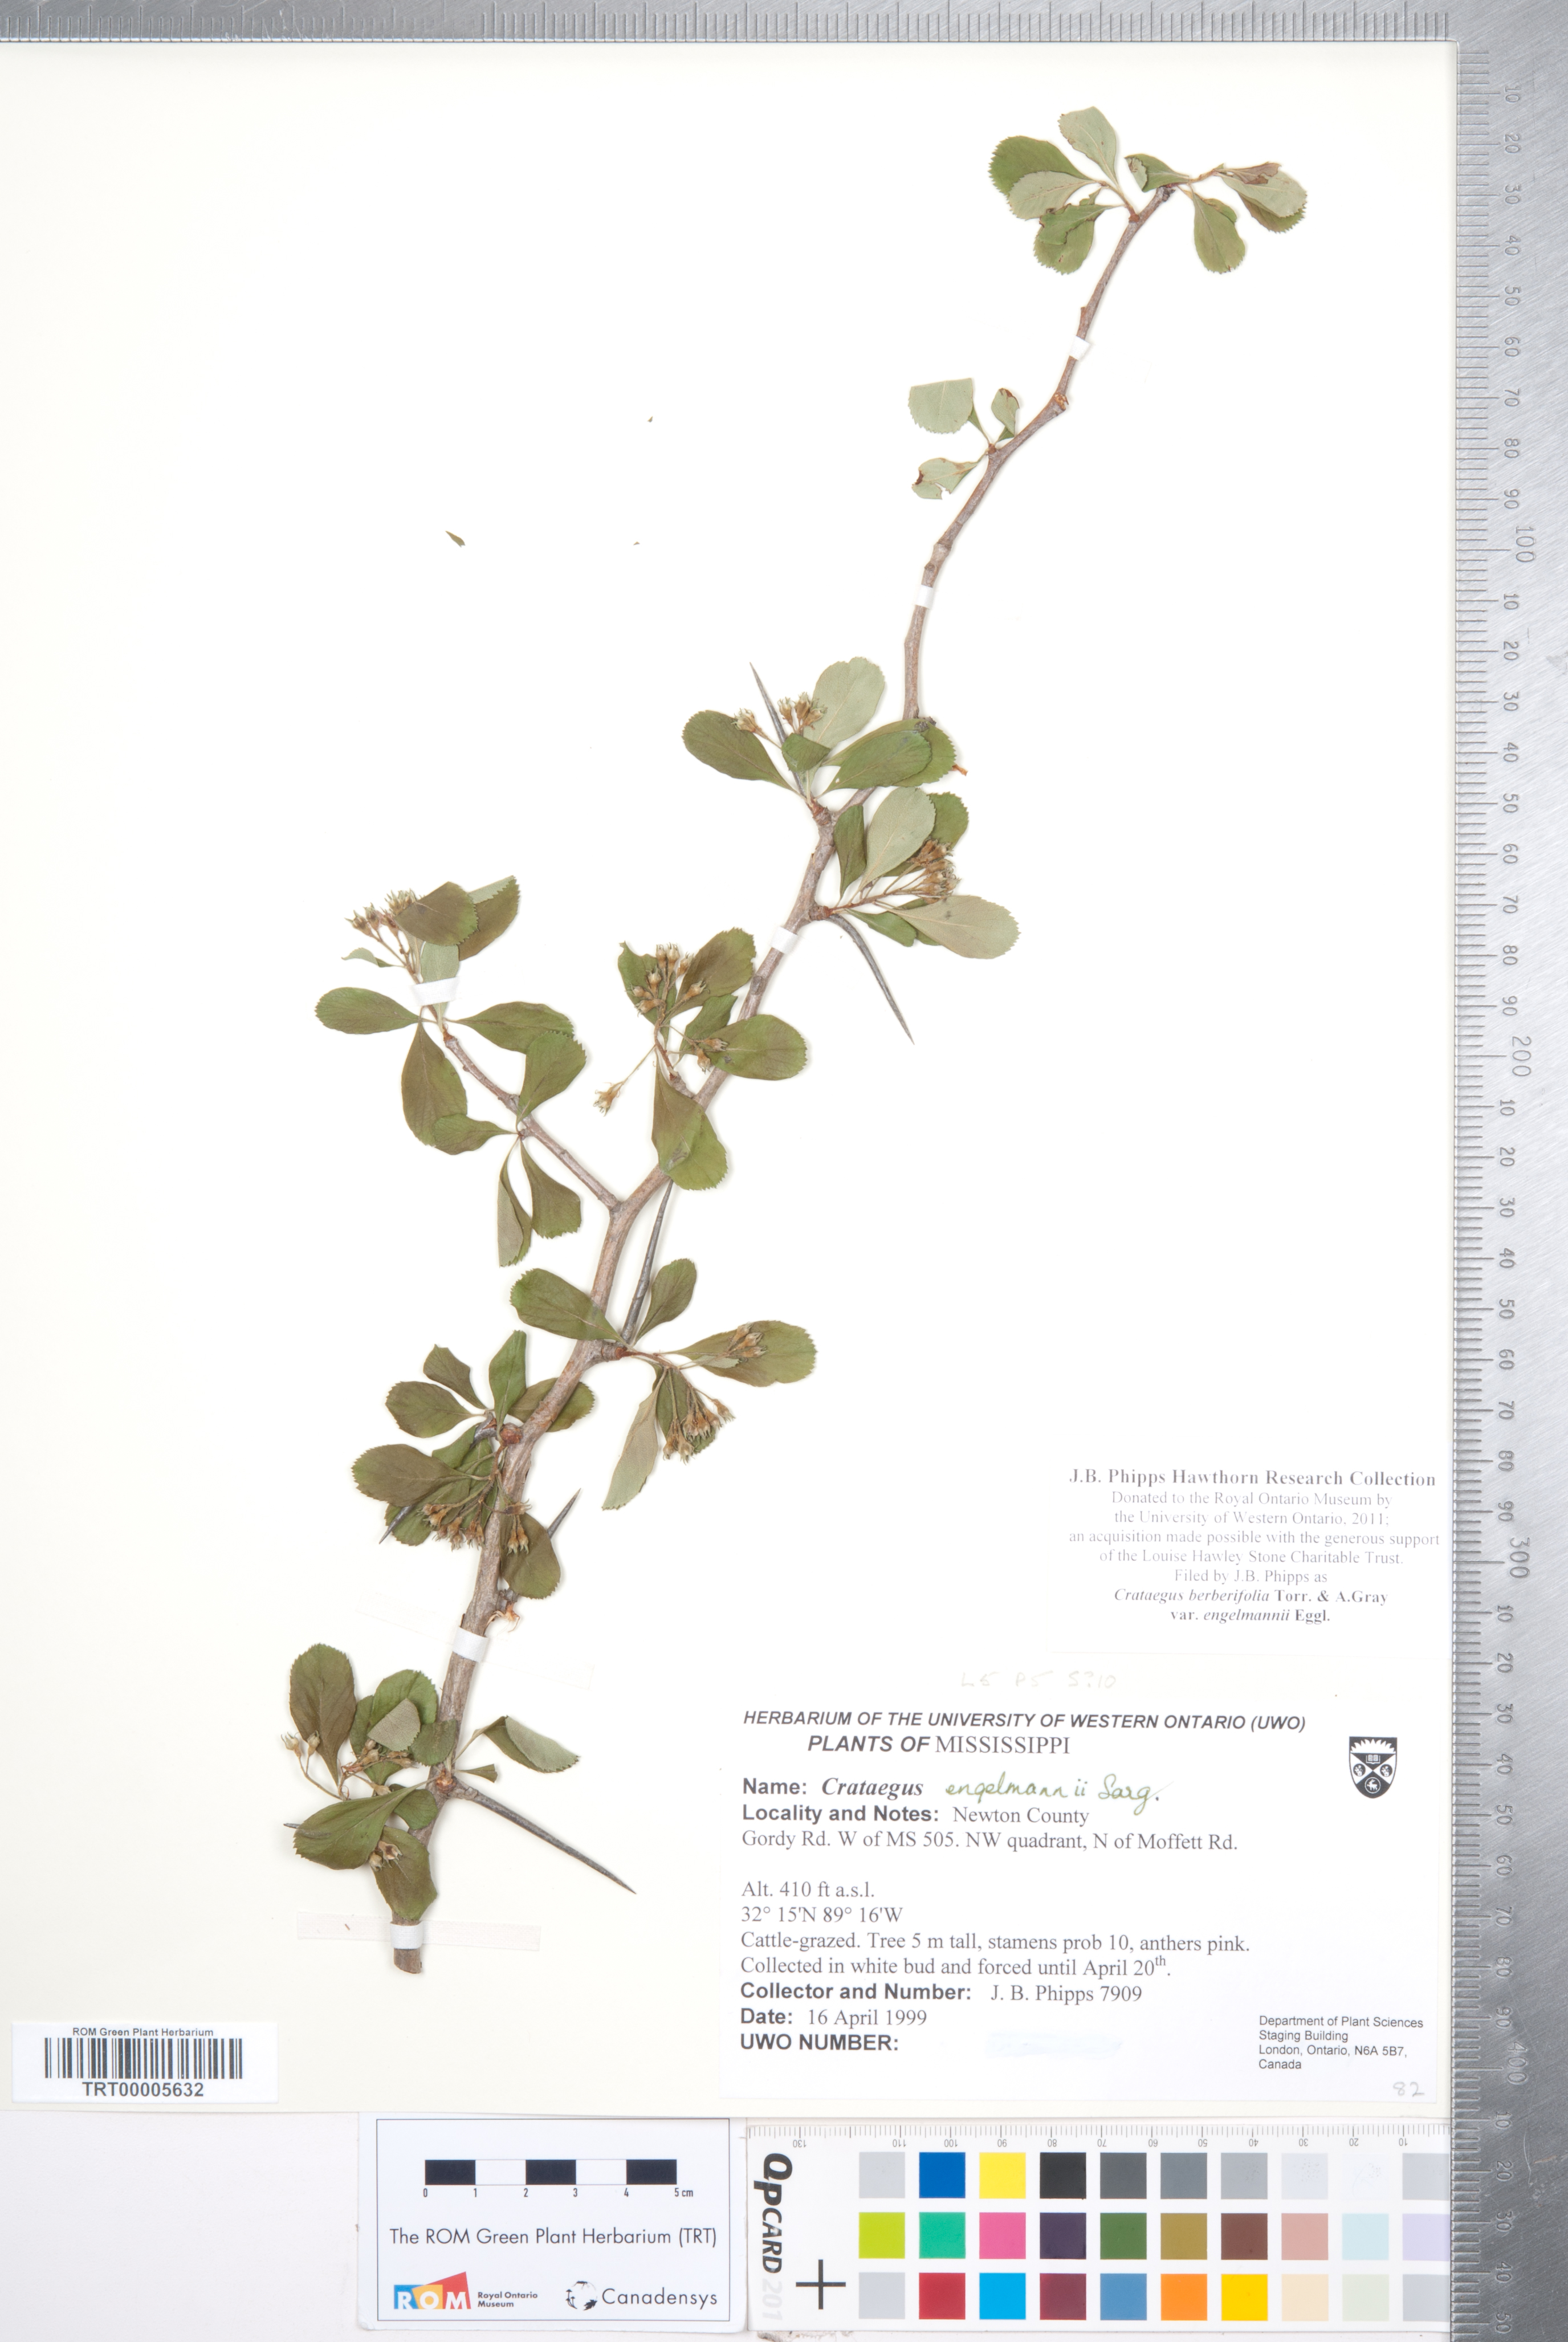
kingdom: Plantae
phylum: Tracheophyta
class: Magnoliopsida
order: Rosales
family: Rosaceae
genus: Crataegus
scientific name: Crataegus berberifolia
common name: Barberry hawthorn
